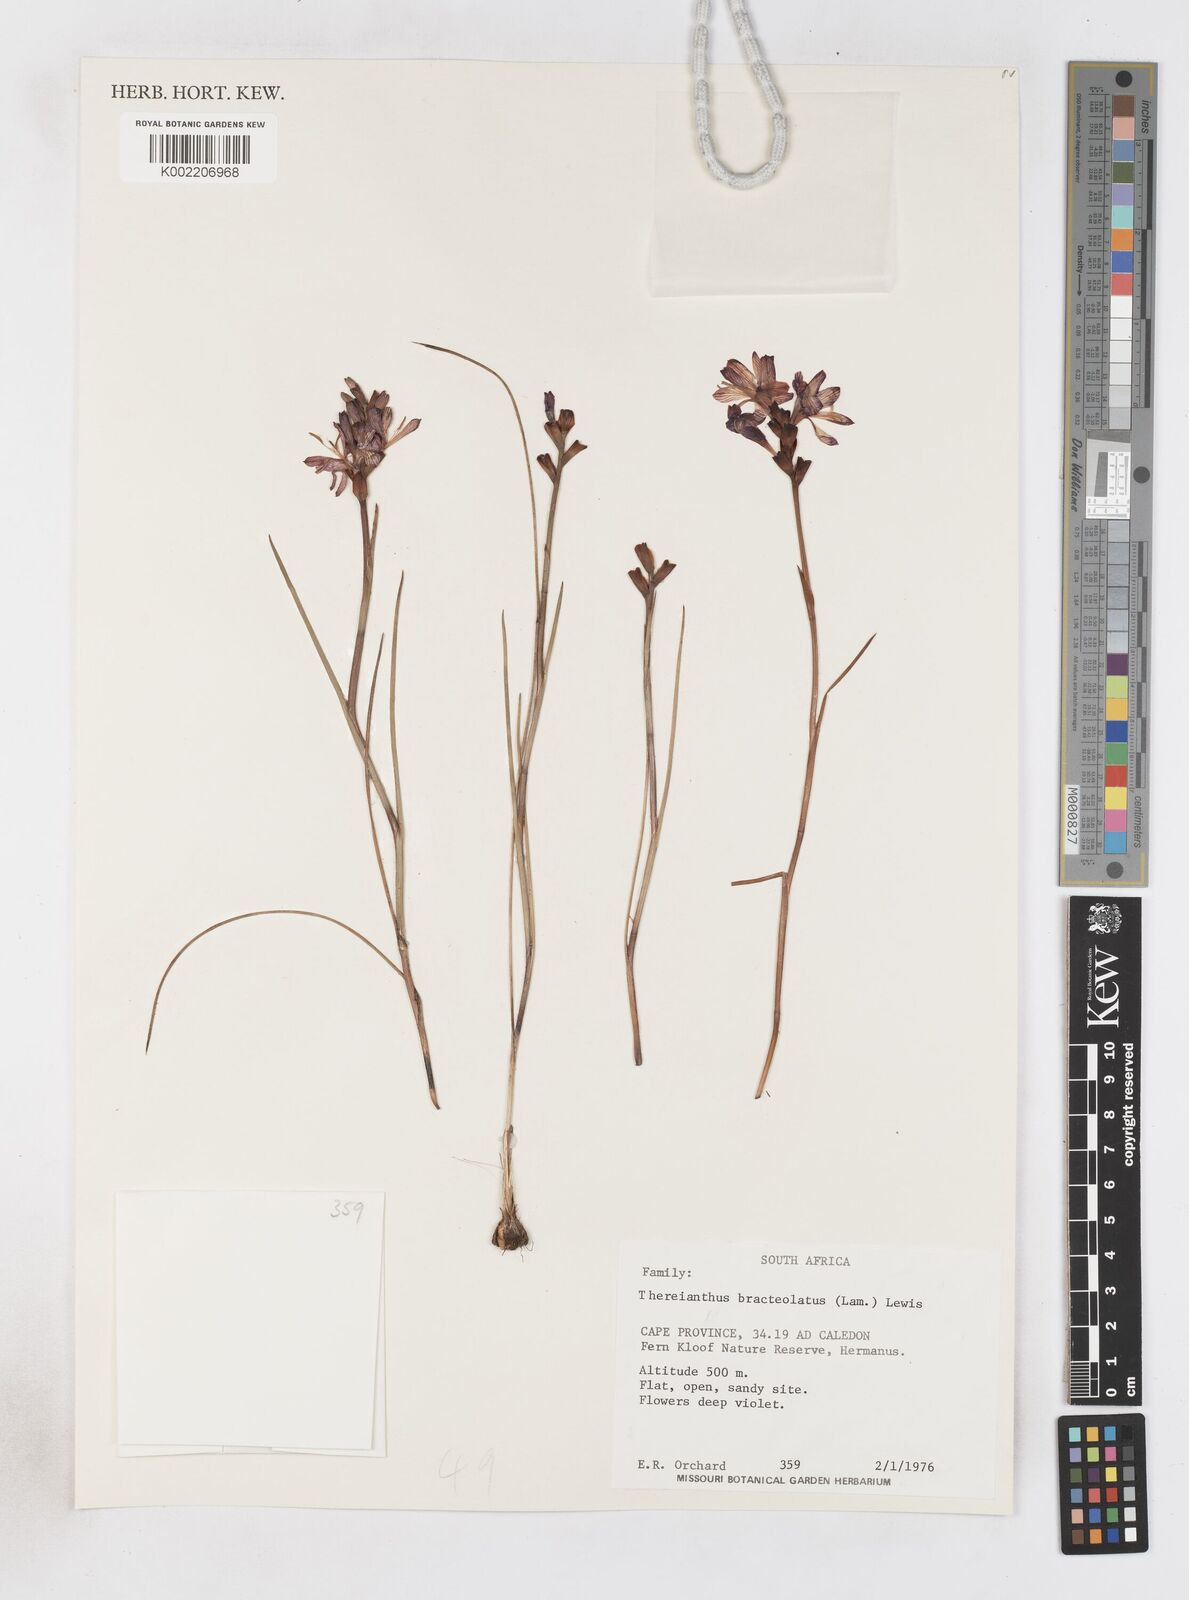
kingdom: Plantae
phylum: Tracheophyta
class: Liliopsida
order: Asparagales
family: Iridaceae
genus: Thereianthus
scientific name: Thereianthus bracteolatus
